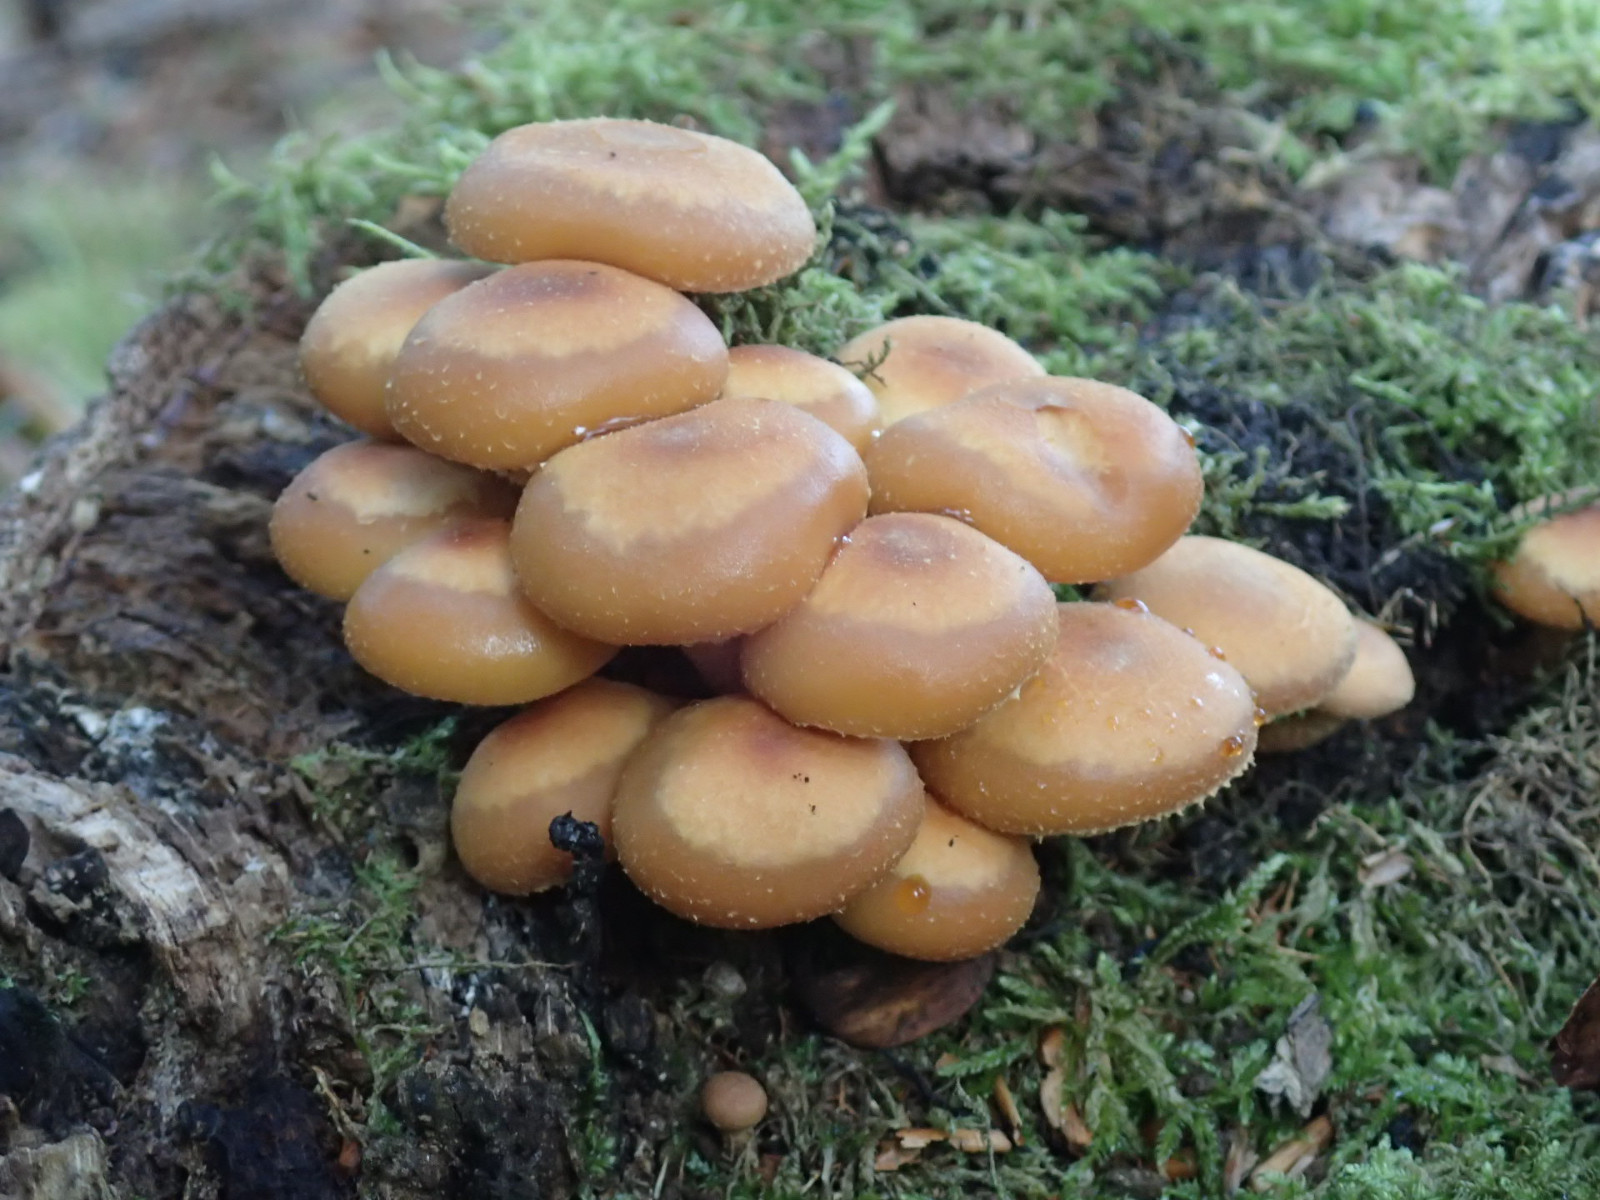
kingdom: Fungi
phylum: Basidiomycota
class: Agaricomycetes
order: Agaricales
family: Strophariaceae
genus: Kuehneromyces
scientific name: Kuehneromyces mutabilis
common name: foranderlig skælhat
